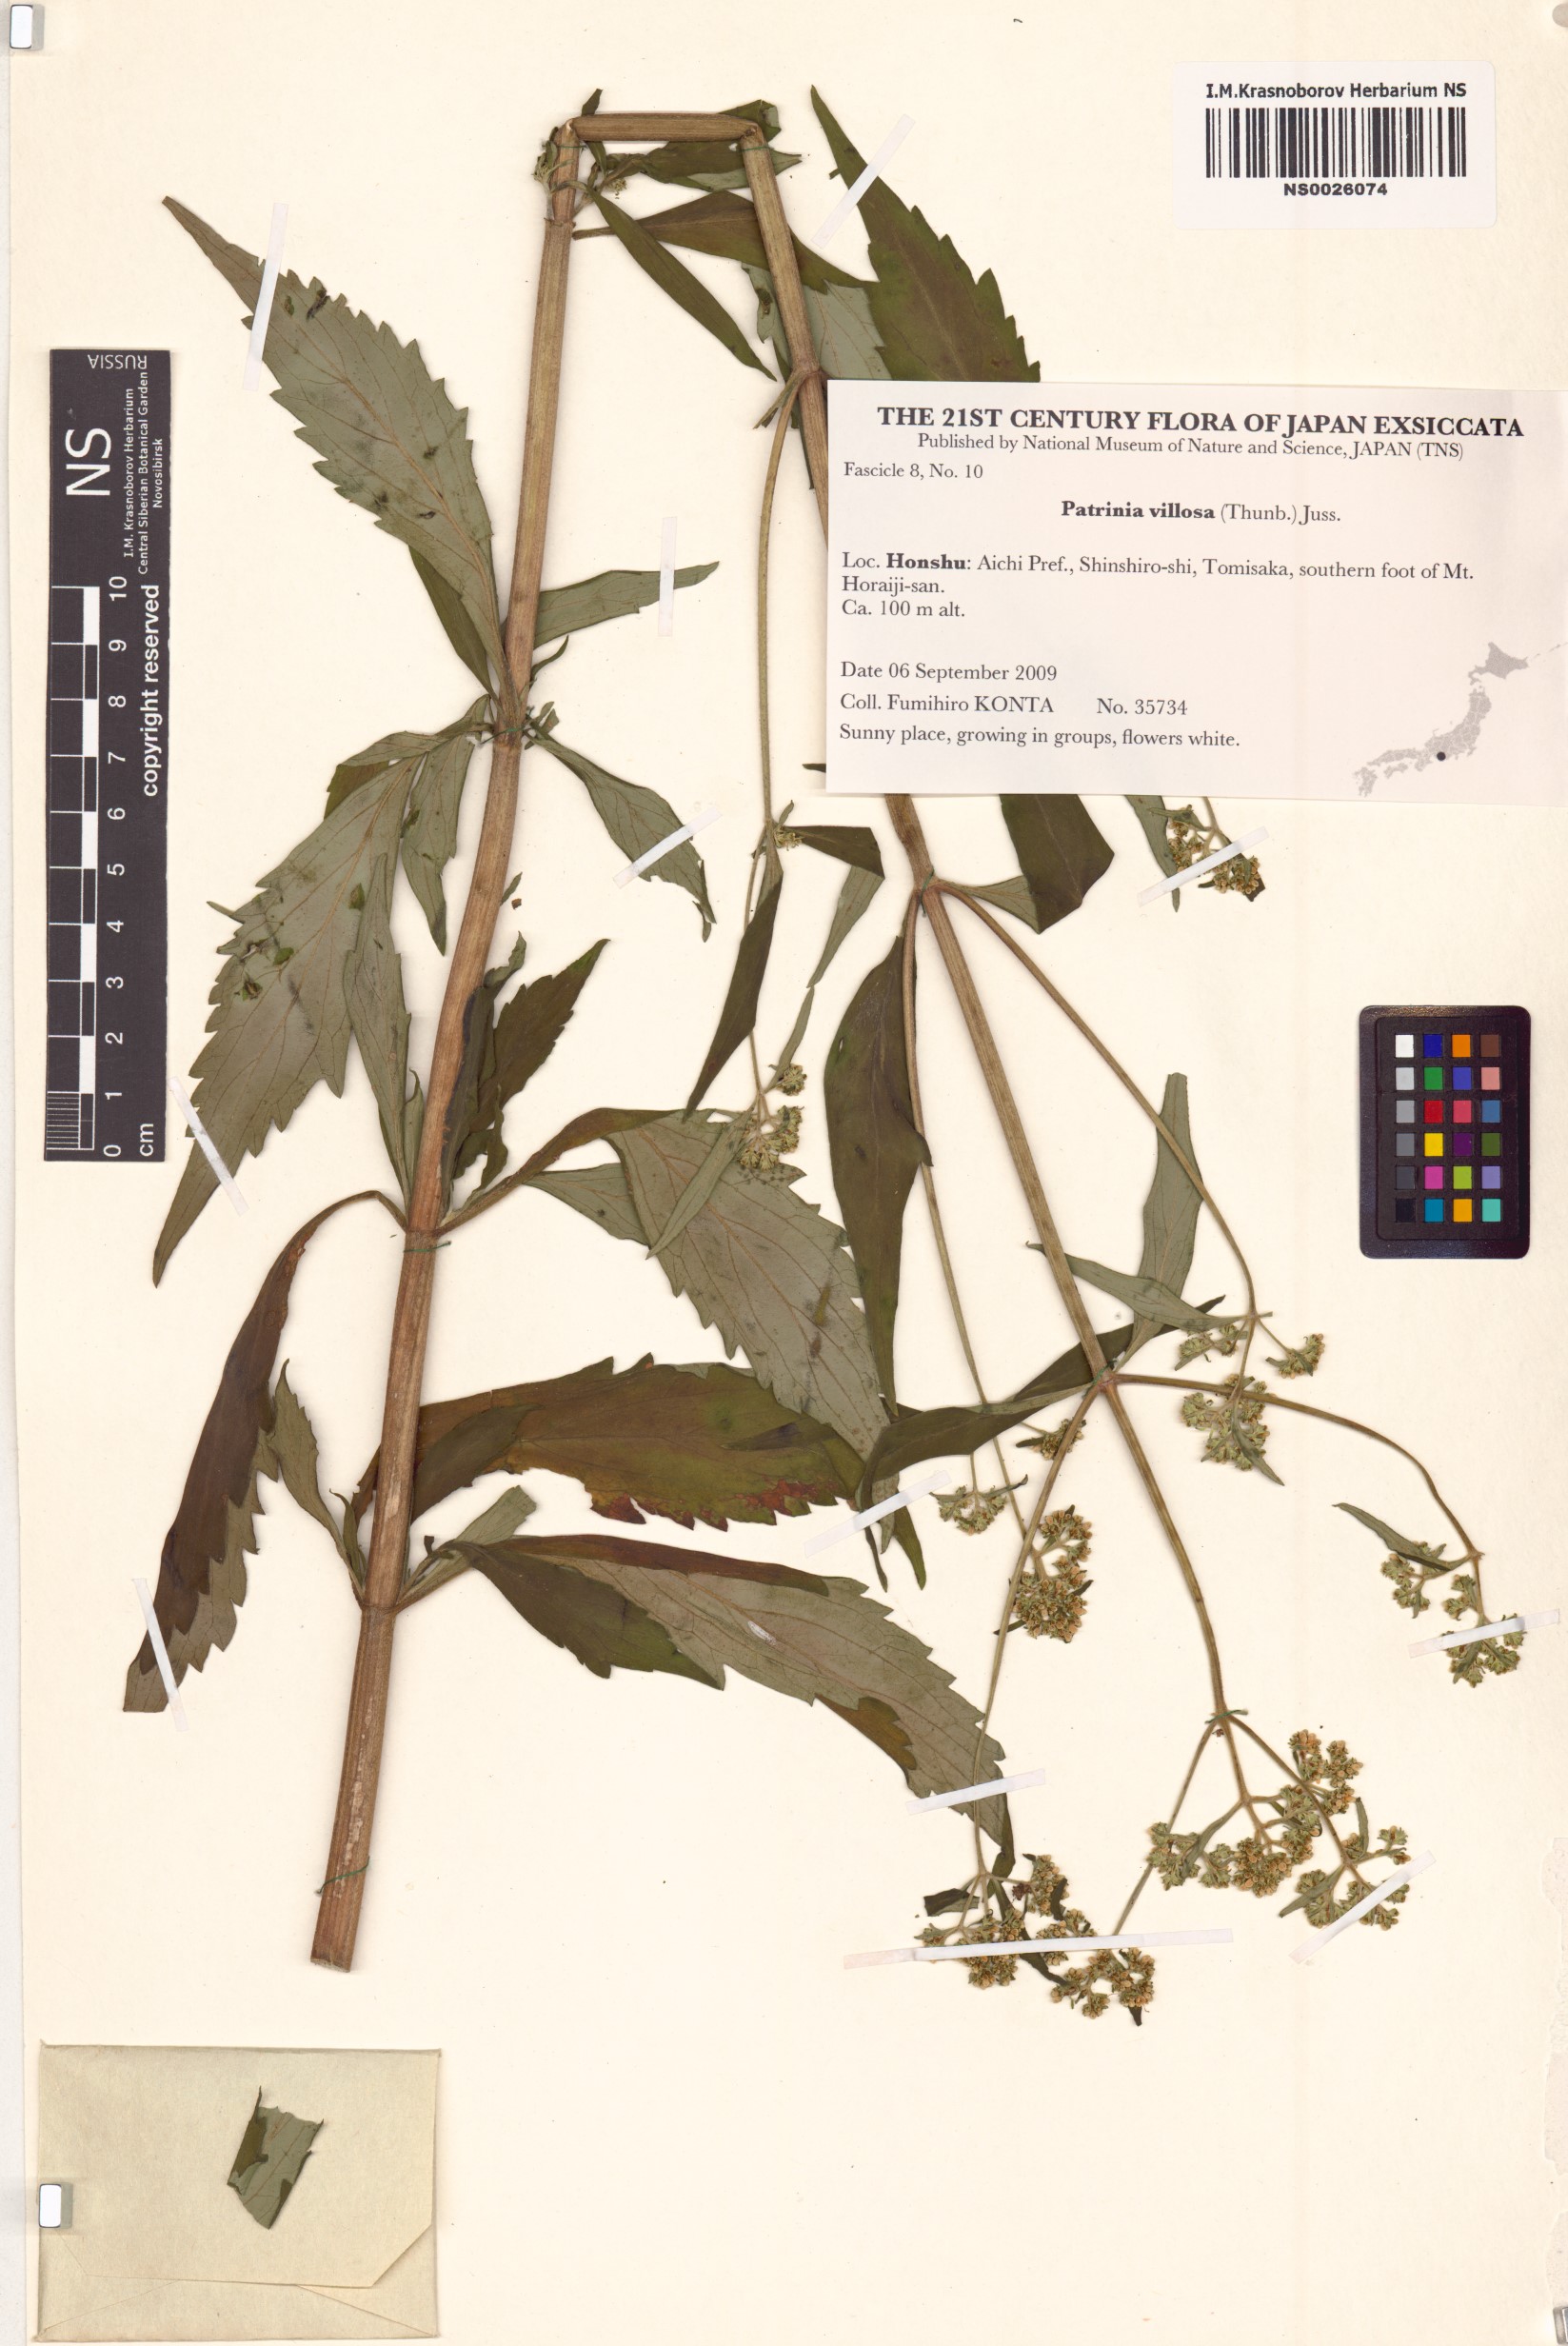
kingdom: Plantae
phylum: Tracheophyta
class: Magnoliopsida
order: Dipsacales
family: Caprifoliaceae
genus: Patrinia
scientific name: Patrinia villosa
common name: Patrinia
